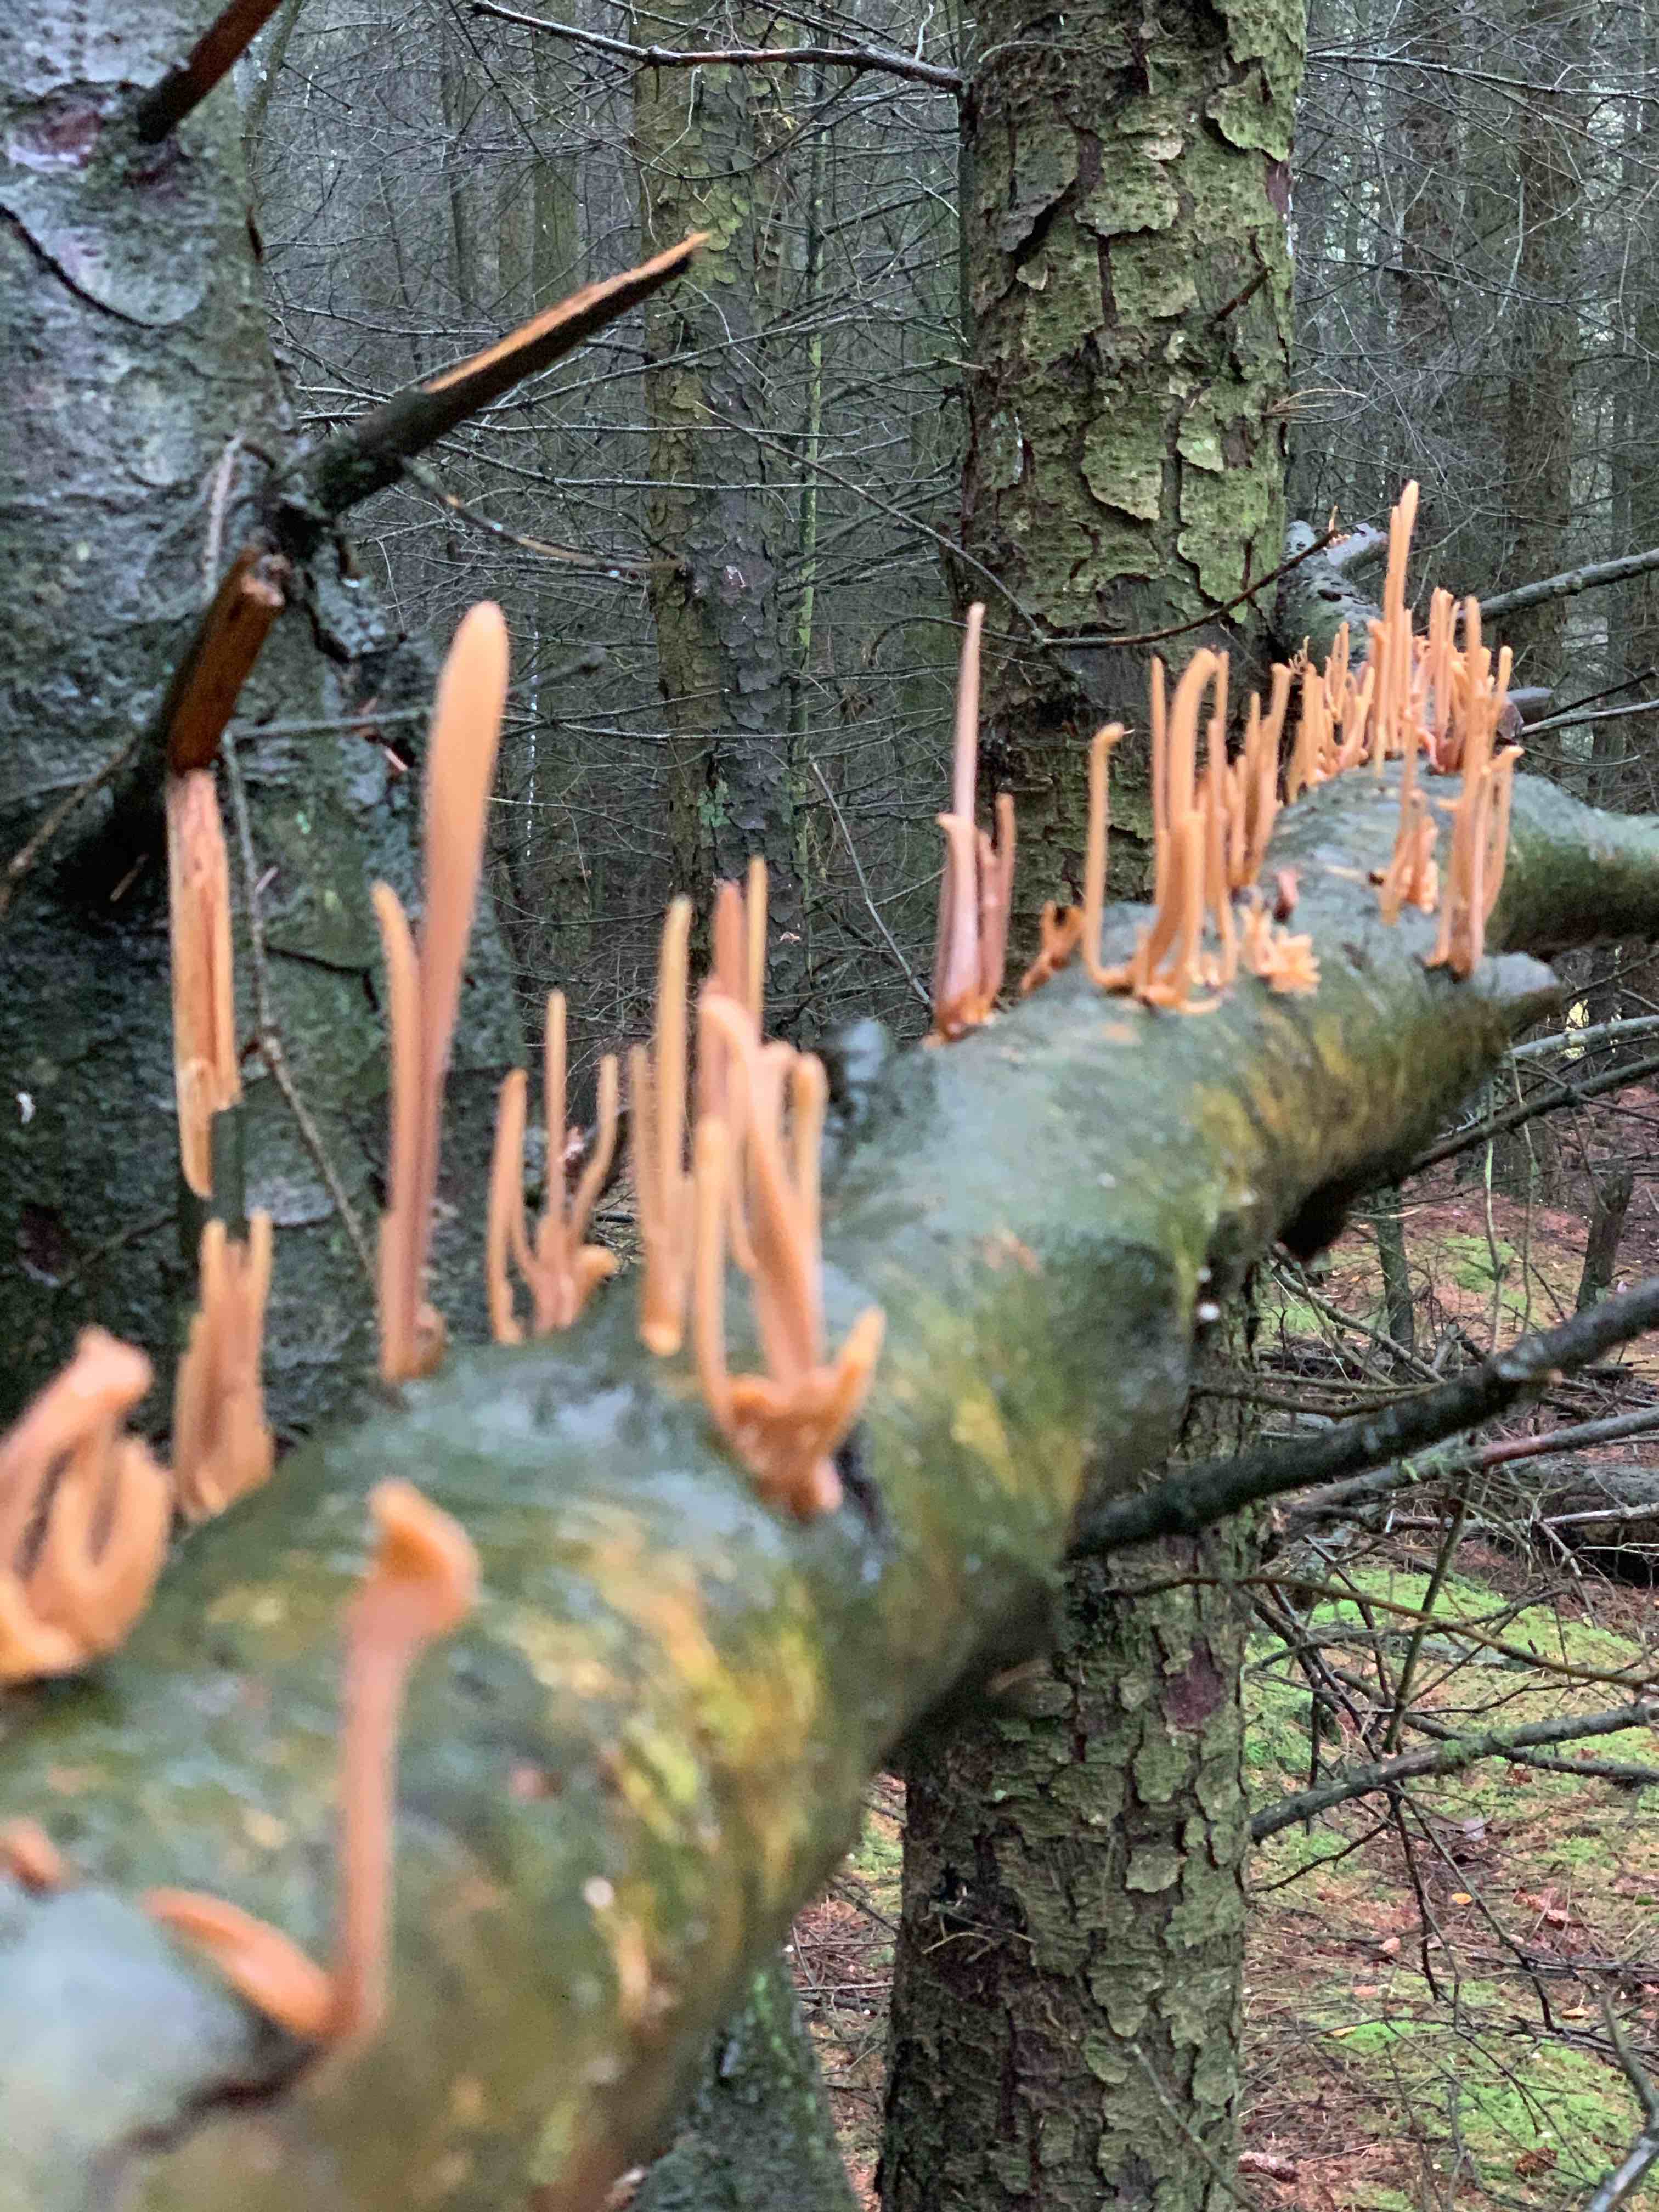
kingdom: Fungi
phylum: Basidiomycota
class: Agaricomycetes
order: Agaricales
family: Typhulaceae
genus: Typhula
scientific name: Typhula fistulosa
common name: pibet rørkølle
